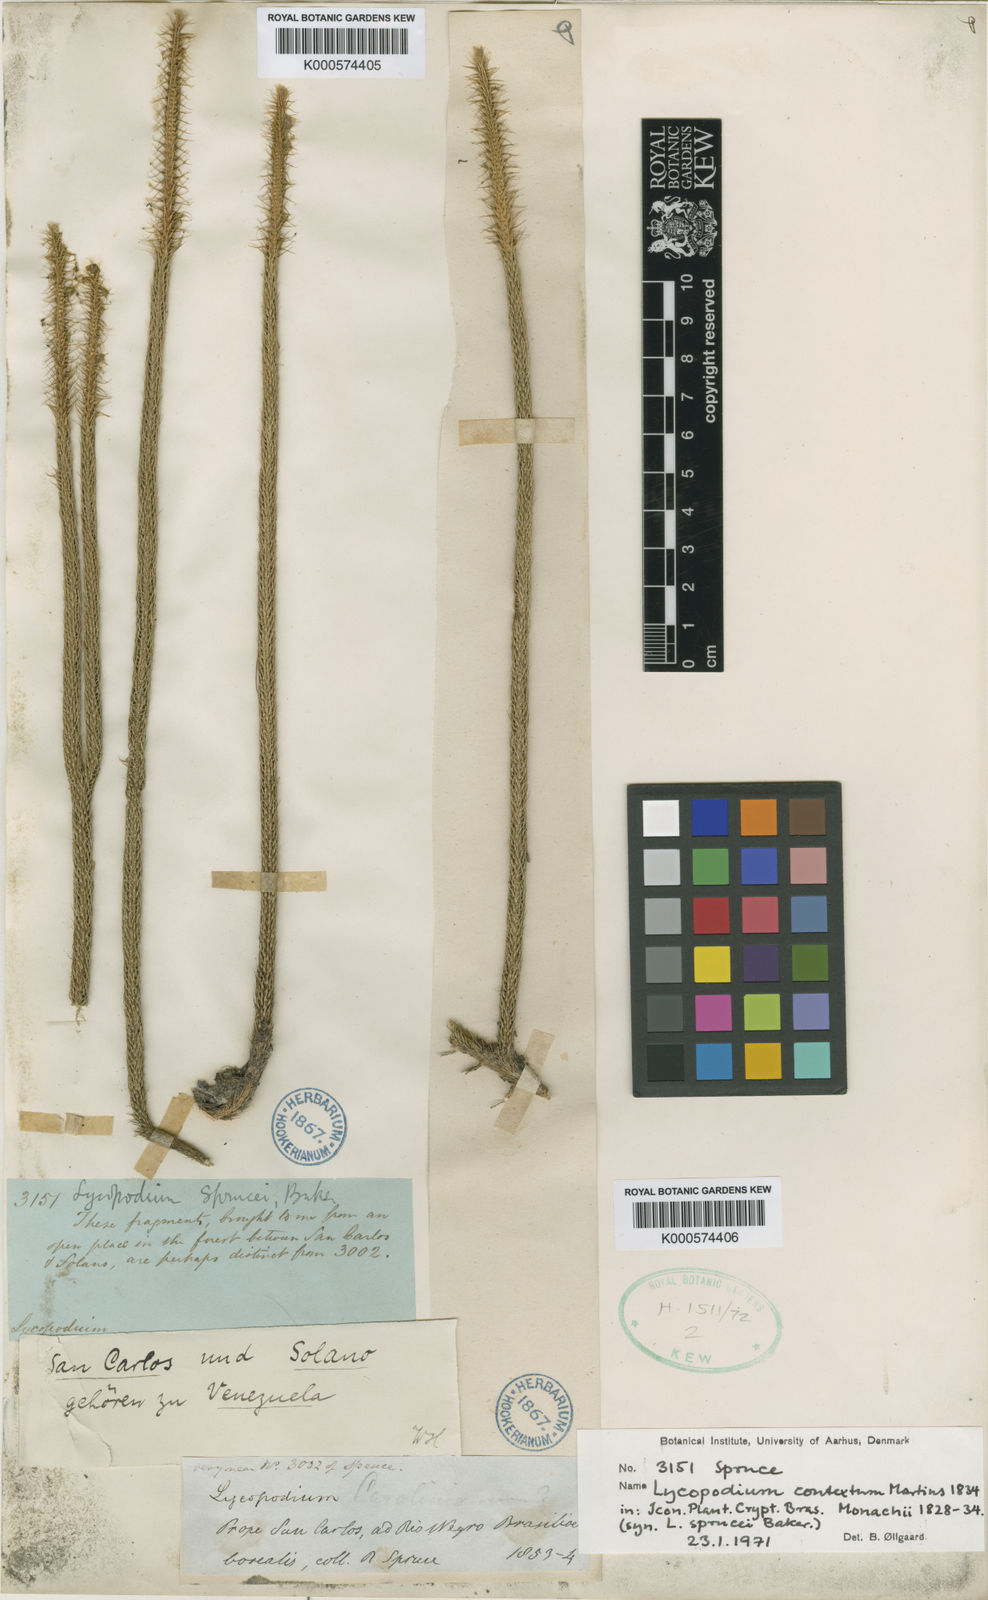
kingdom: Plantae
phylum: Tracheophyta
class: Lycopodiopsida
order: Lycopodiales
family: Lycopodiaceae
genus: Pseudolycopodiella
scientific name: Pseudolycopodiella contexta
